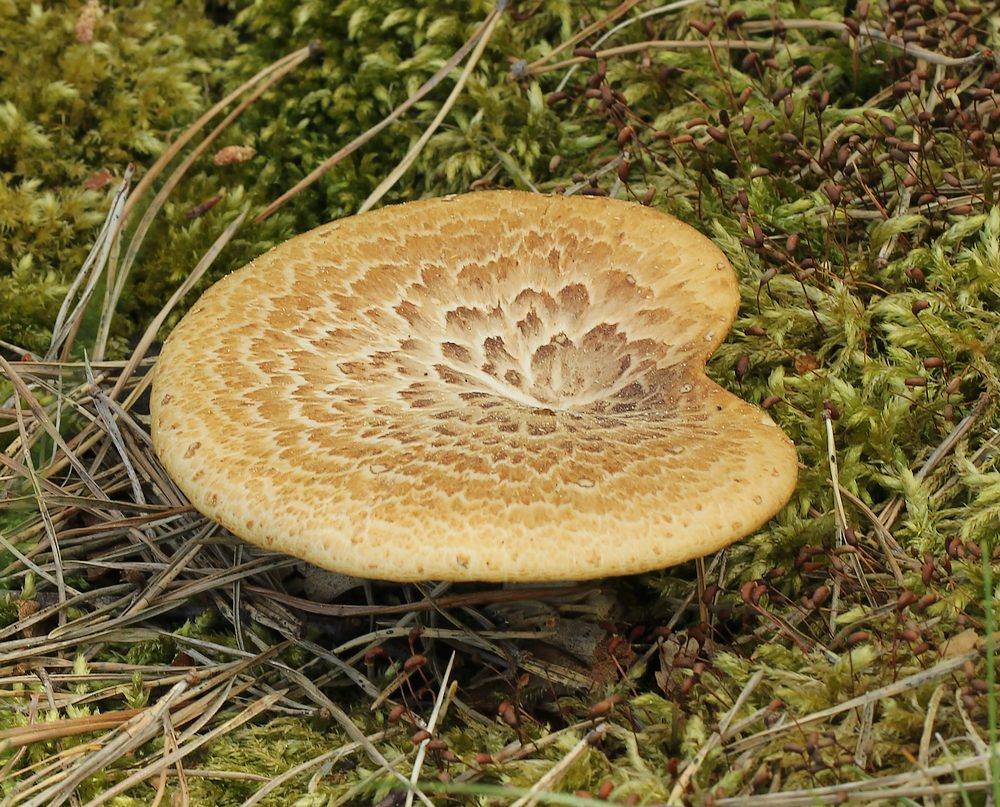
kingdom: Fungi
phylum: Basidiomycota
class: Agaricomycetes
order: Polyporales
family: Polyporaceae
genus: Polyporus
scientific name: Polyporus tuberaster
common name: knoldet stilkporesvamp
